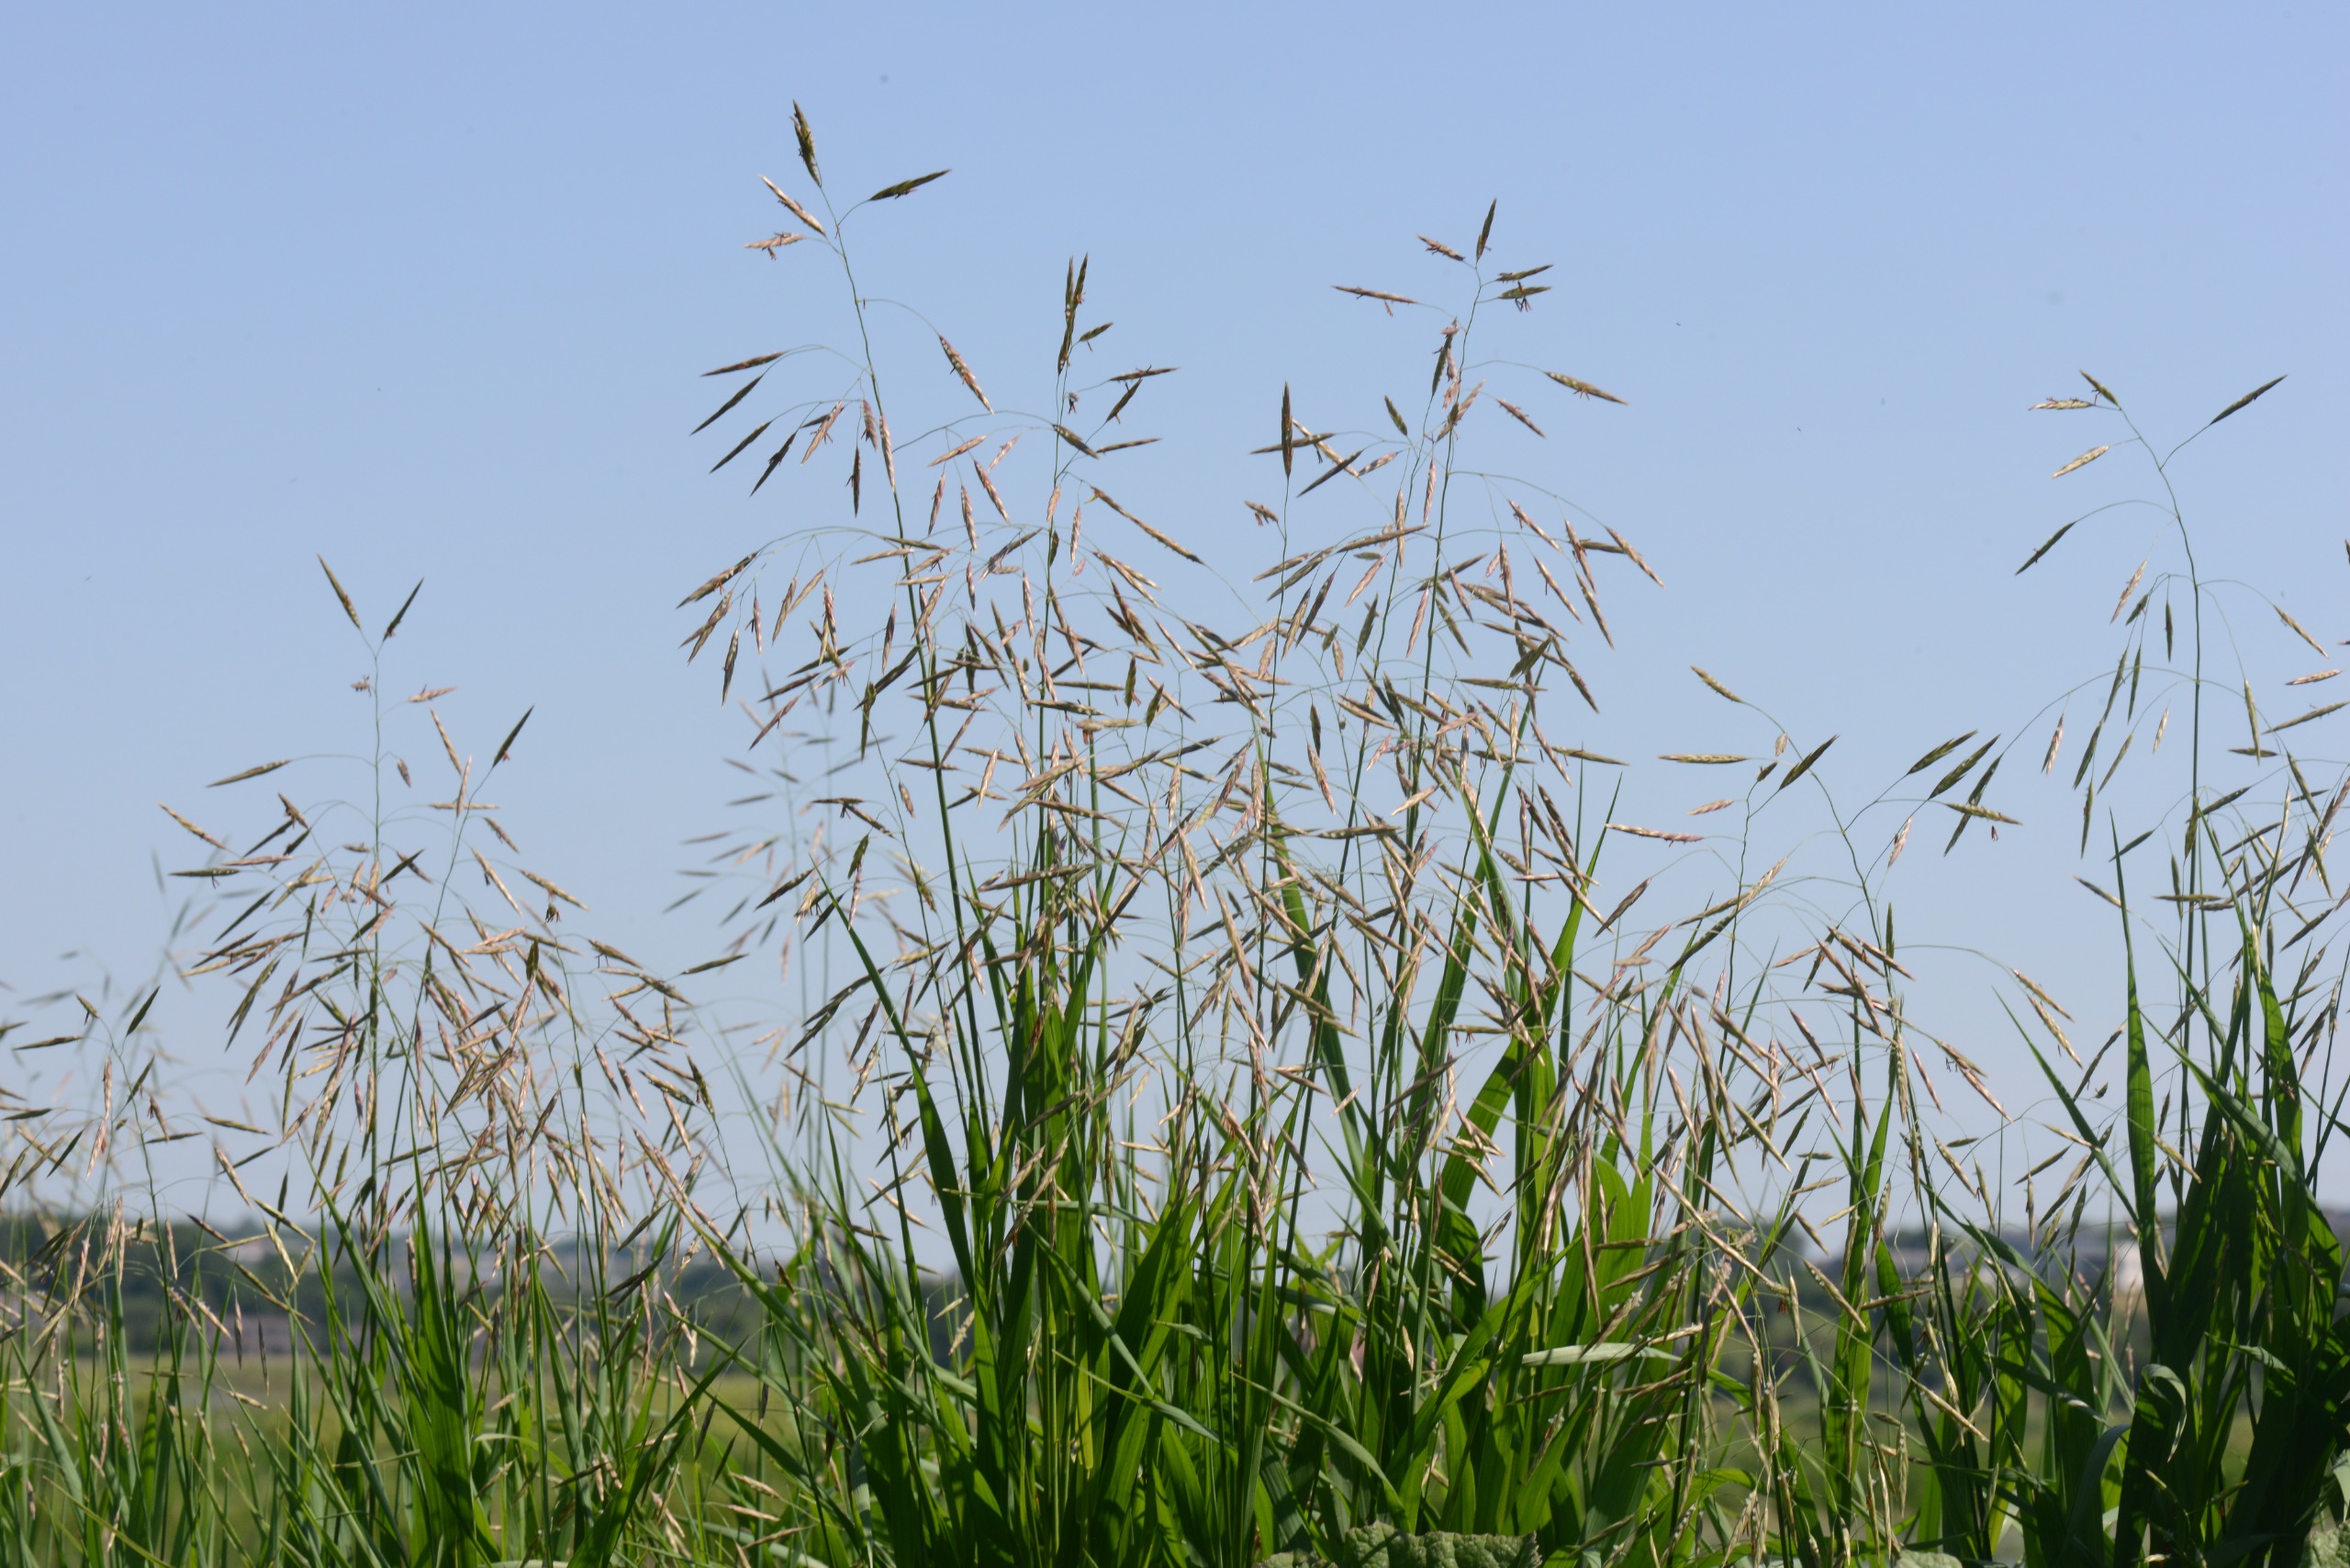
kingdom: Plantae
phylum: Tracheophyta
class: Liliopsida
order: Poales
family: Poaceae
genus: Bromus
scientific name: Bromus inermis
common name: Stakløs hejre
